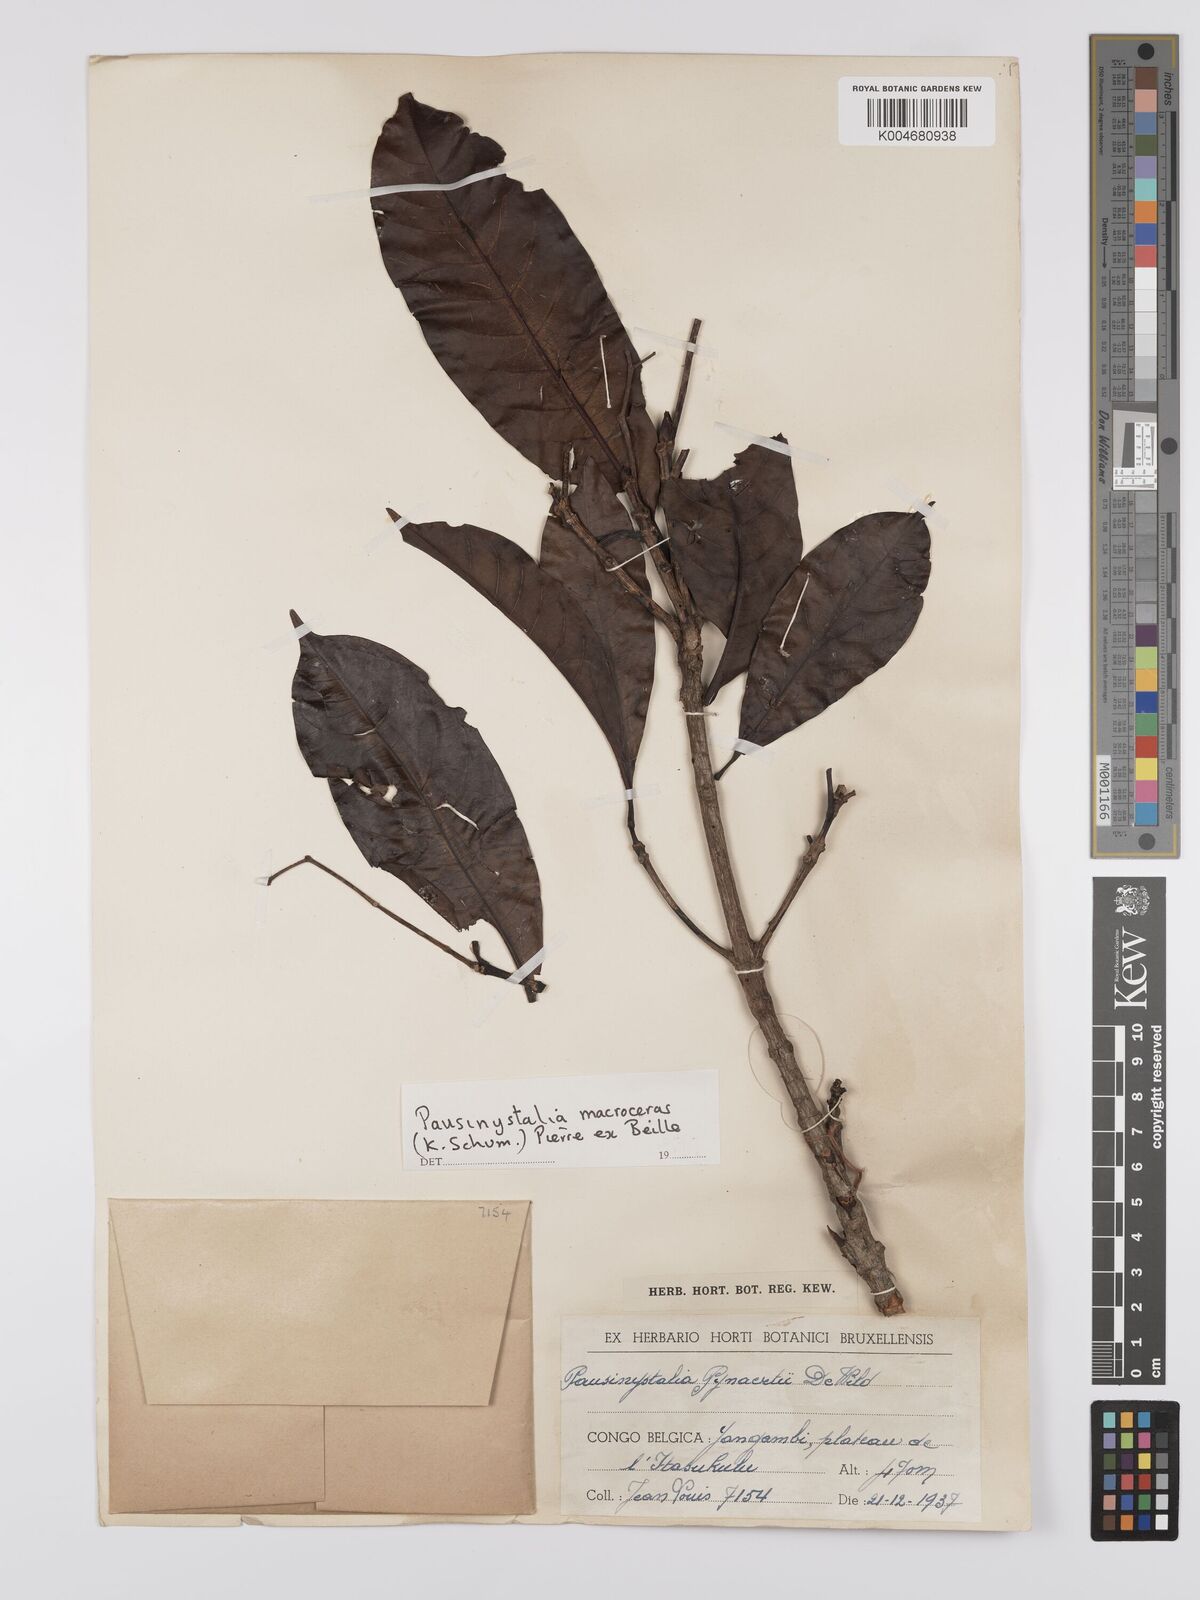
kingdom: Plantae
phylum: Tracheophyta
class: Magnoliopsida
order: Gentianales
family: Rubiaceae
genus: Corynanthe
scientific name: Corynanthe macroceras
